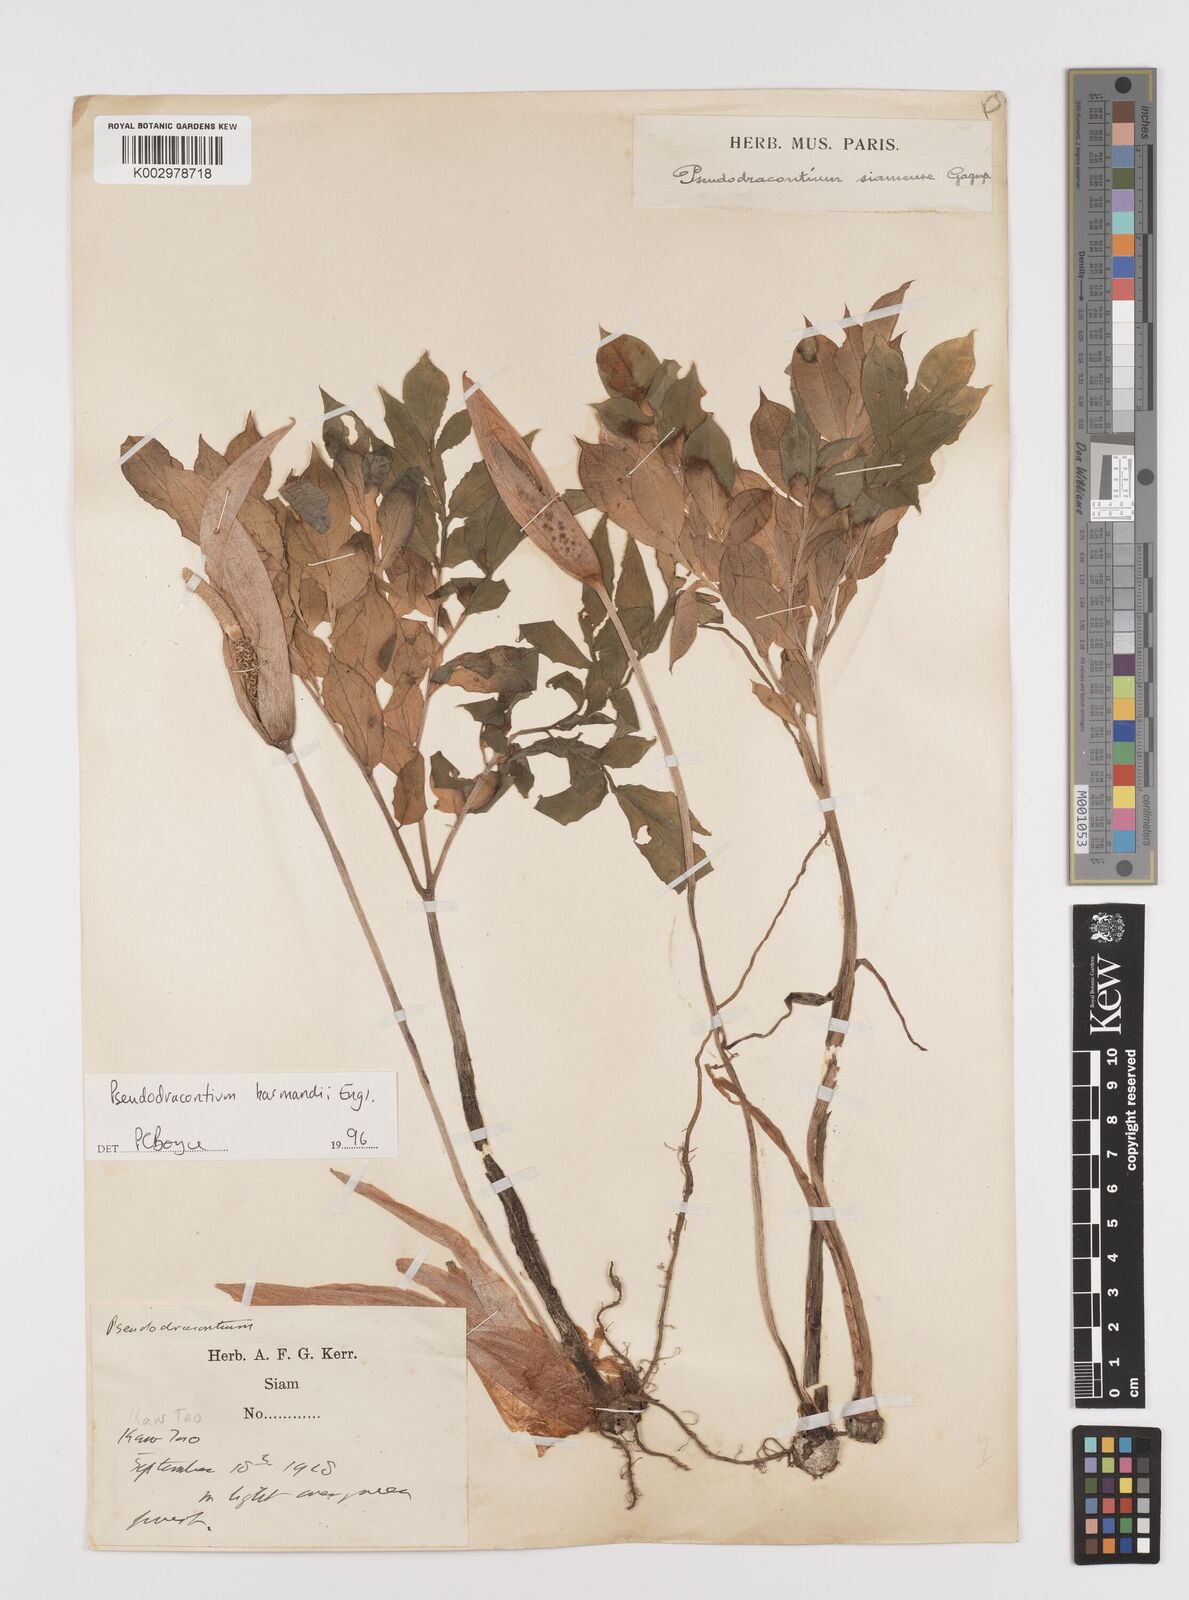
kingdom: Plantae
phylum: Tracheophyta
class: Liliopsida
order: Alismatales
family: Araceae
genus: Amorphophallus
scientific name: Amorphophallus harmandii
